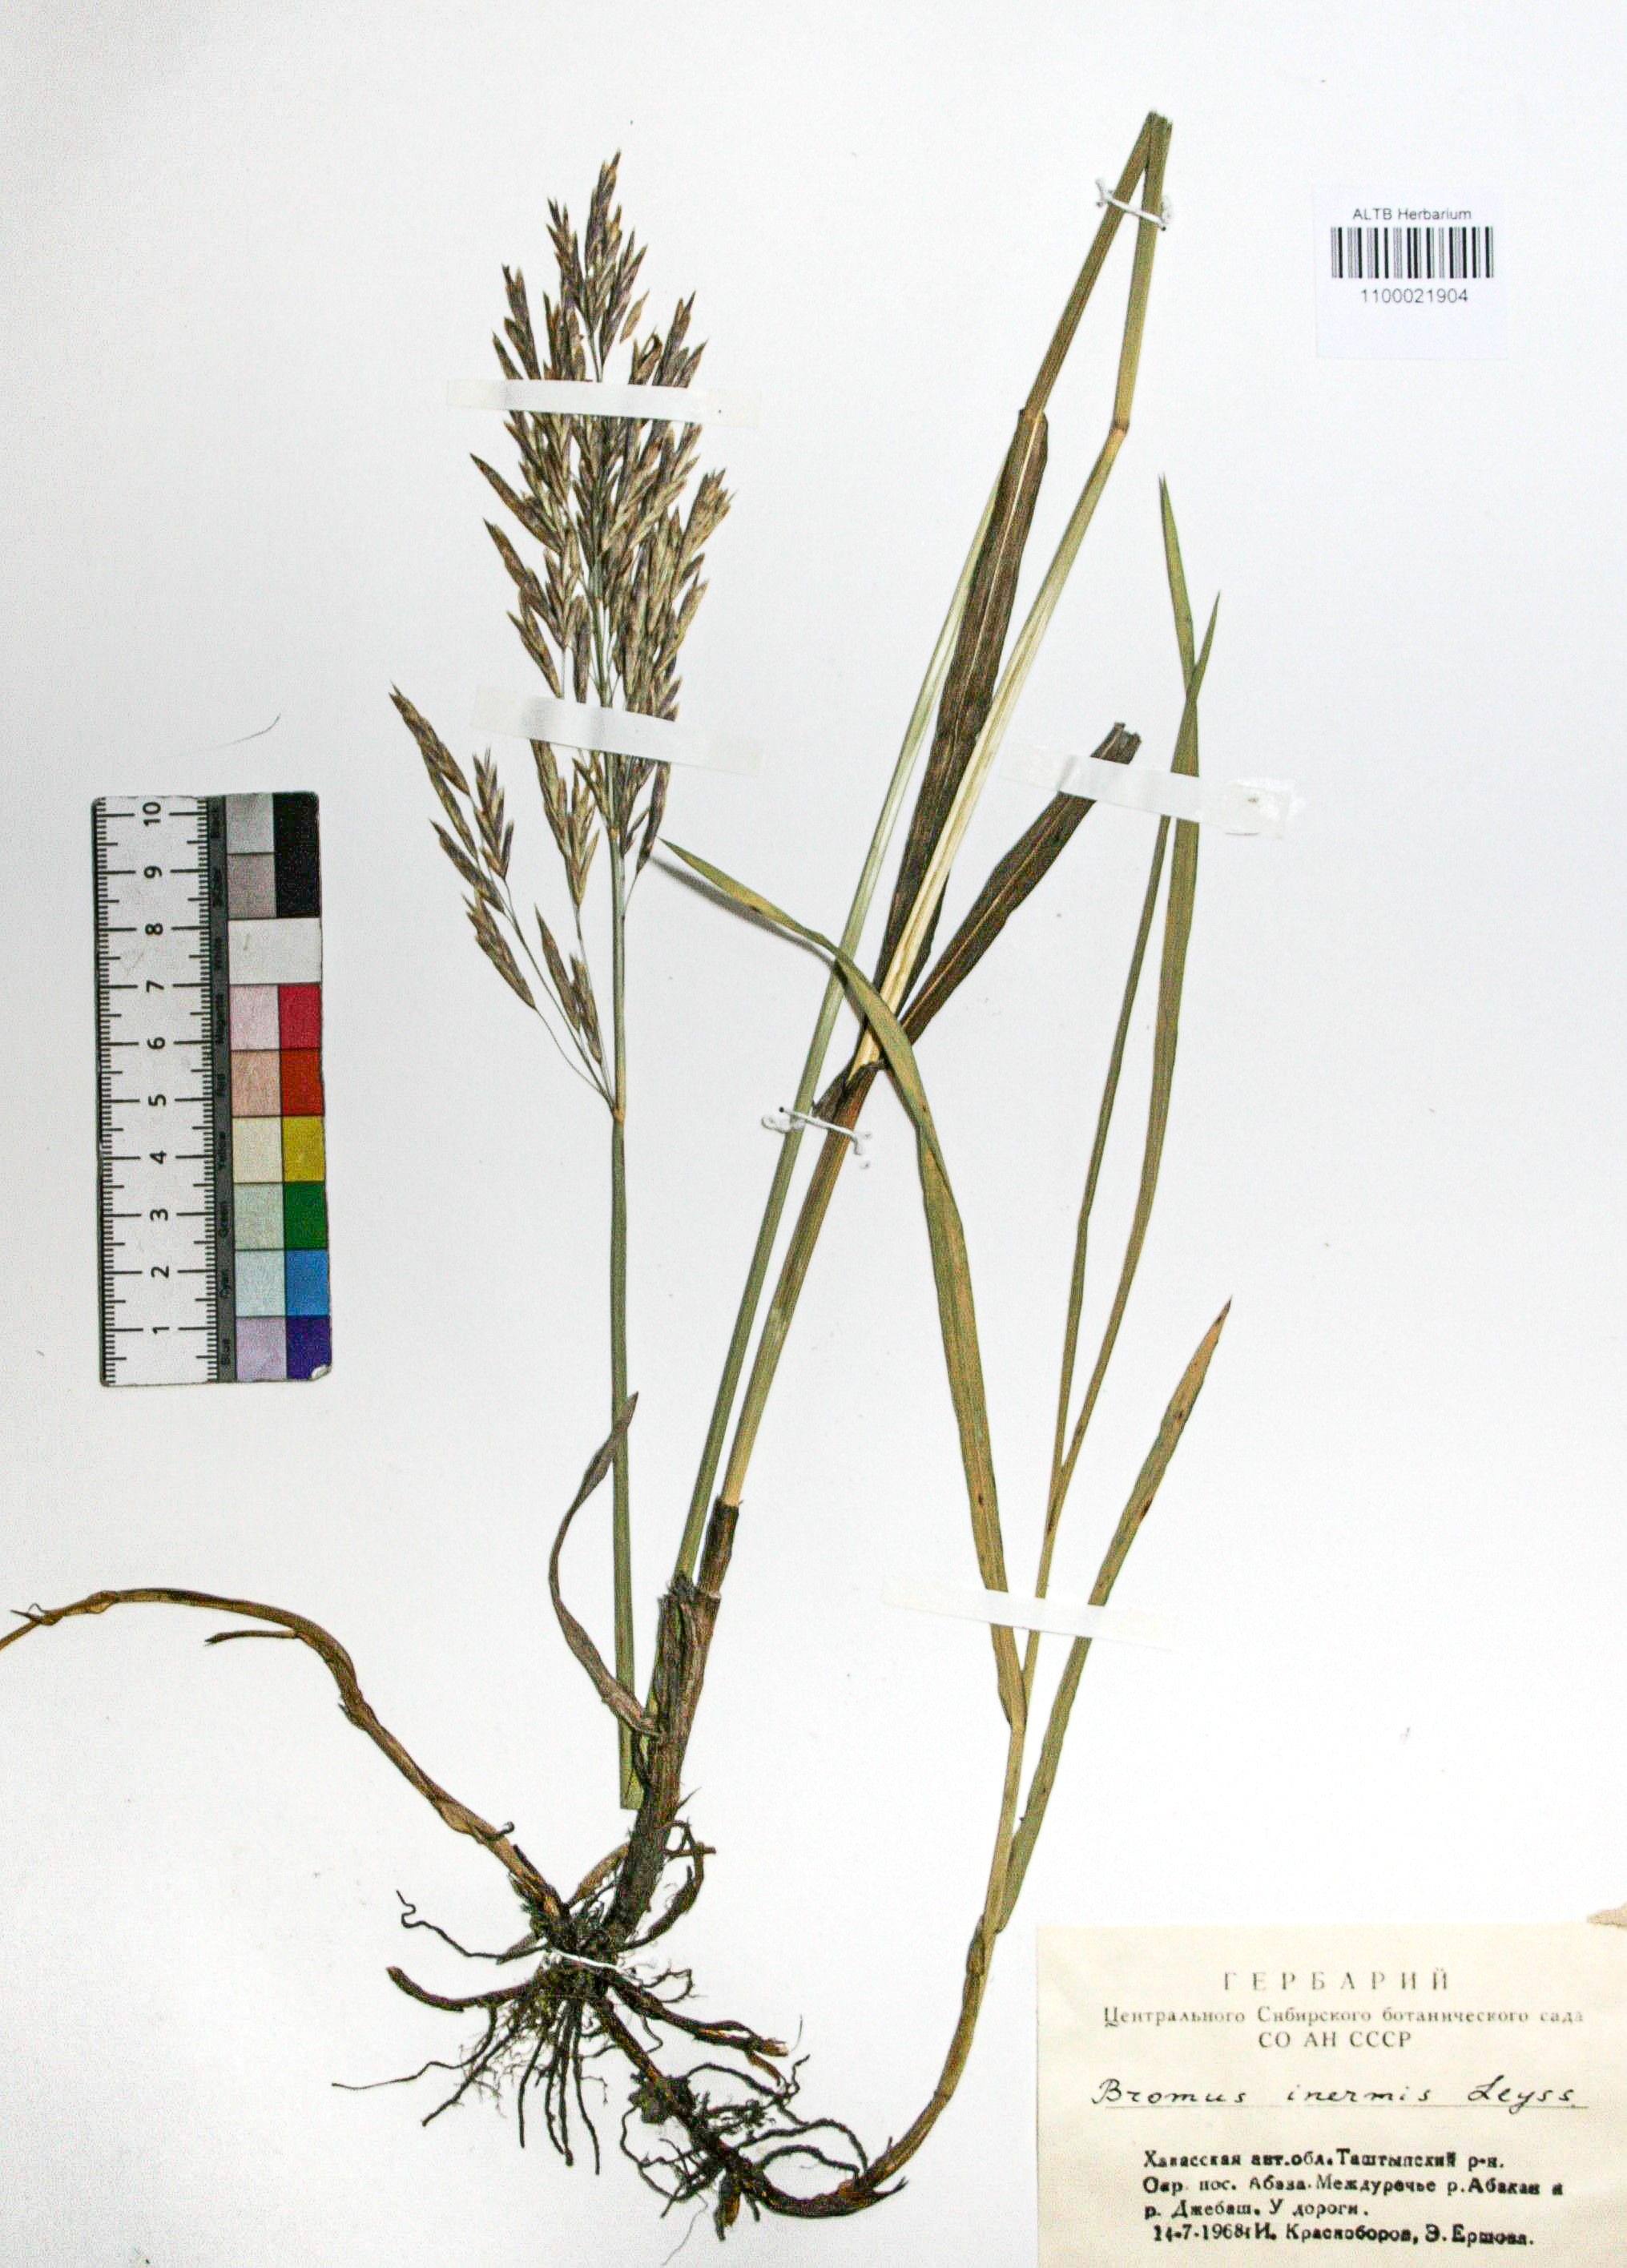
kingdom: Plantae
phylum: Tracheophyta
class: Liliopsida
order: Poales
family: Poaceae
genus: Bromus
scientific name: Bromus inermis
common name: Smooth brome
